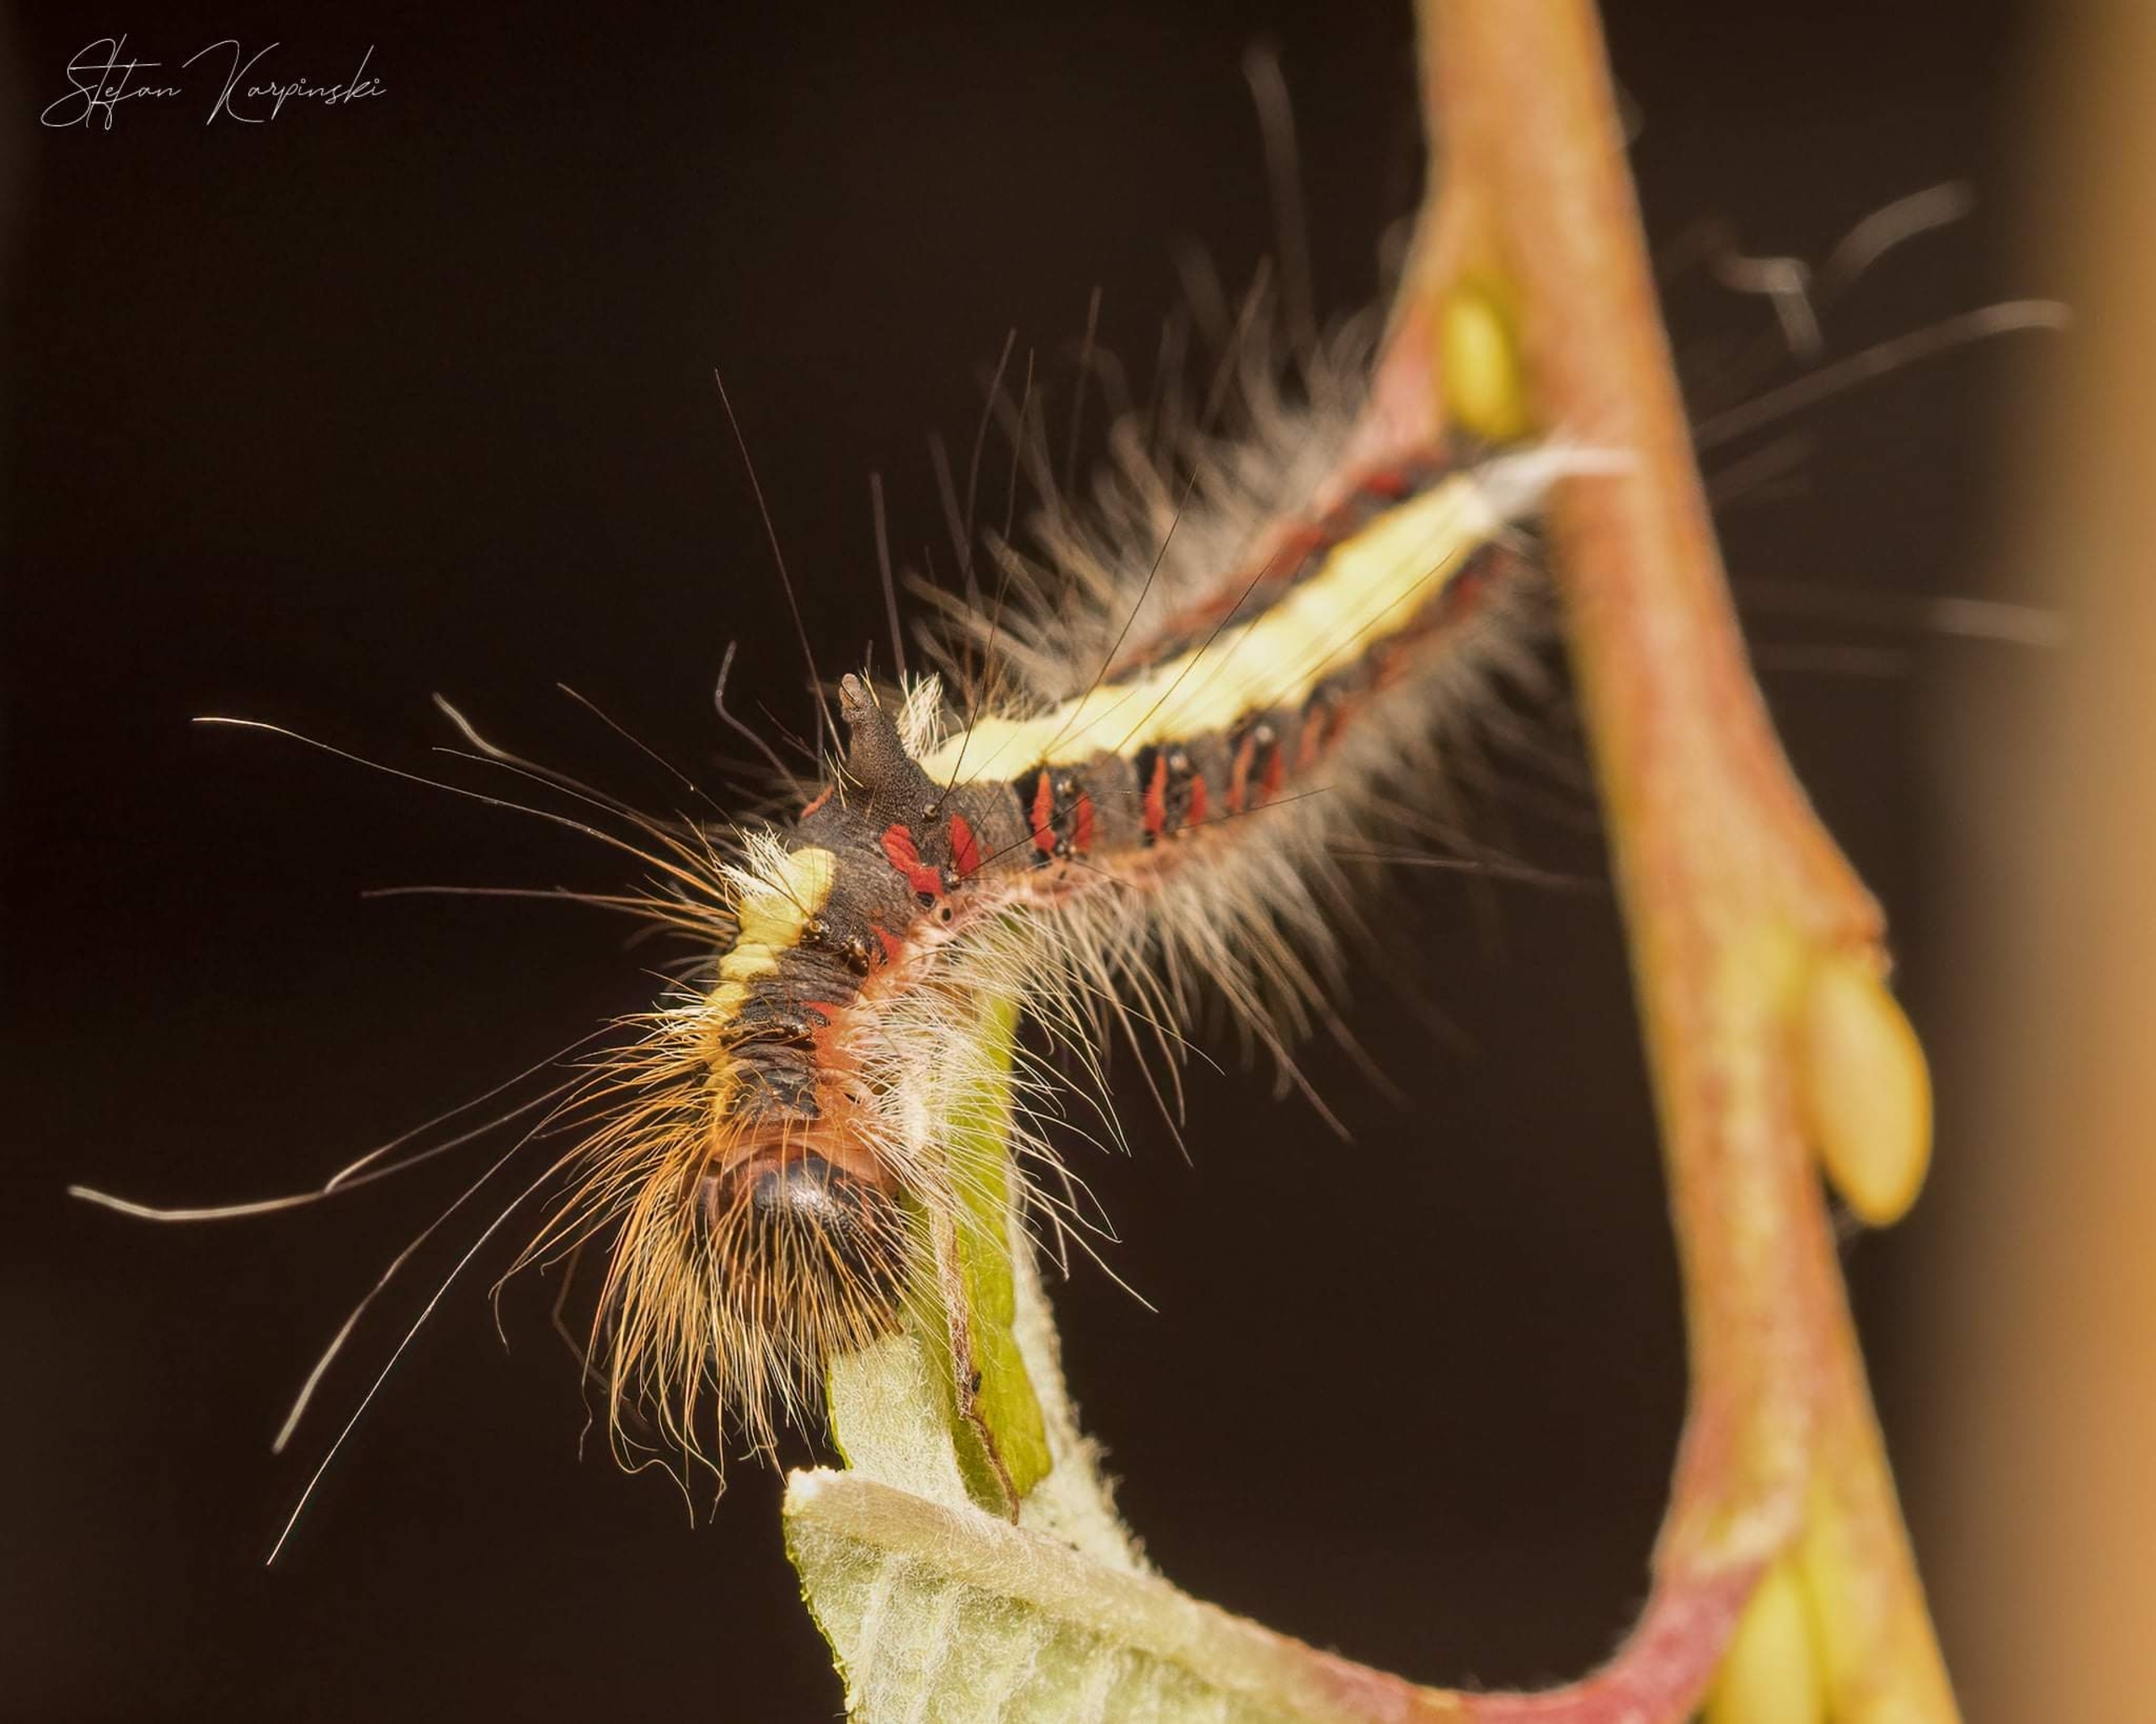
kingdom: Animalia
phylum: Arthropoda
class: Insecta
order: Lepidoptera
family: Noctuidae
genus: Acronicta
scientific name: Acronicta psi
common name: Psi-ugle
